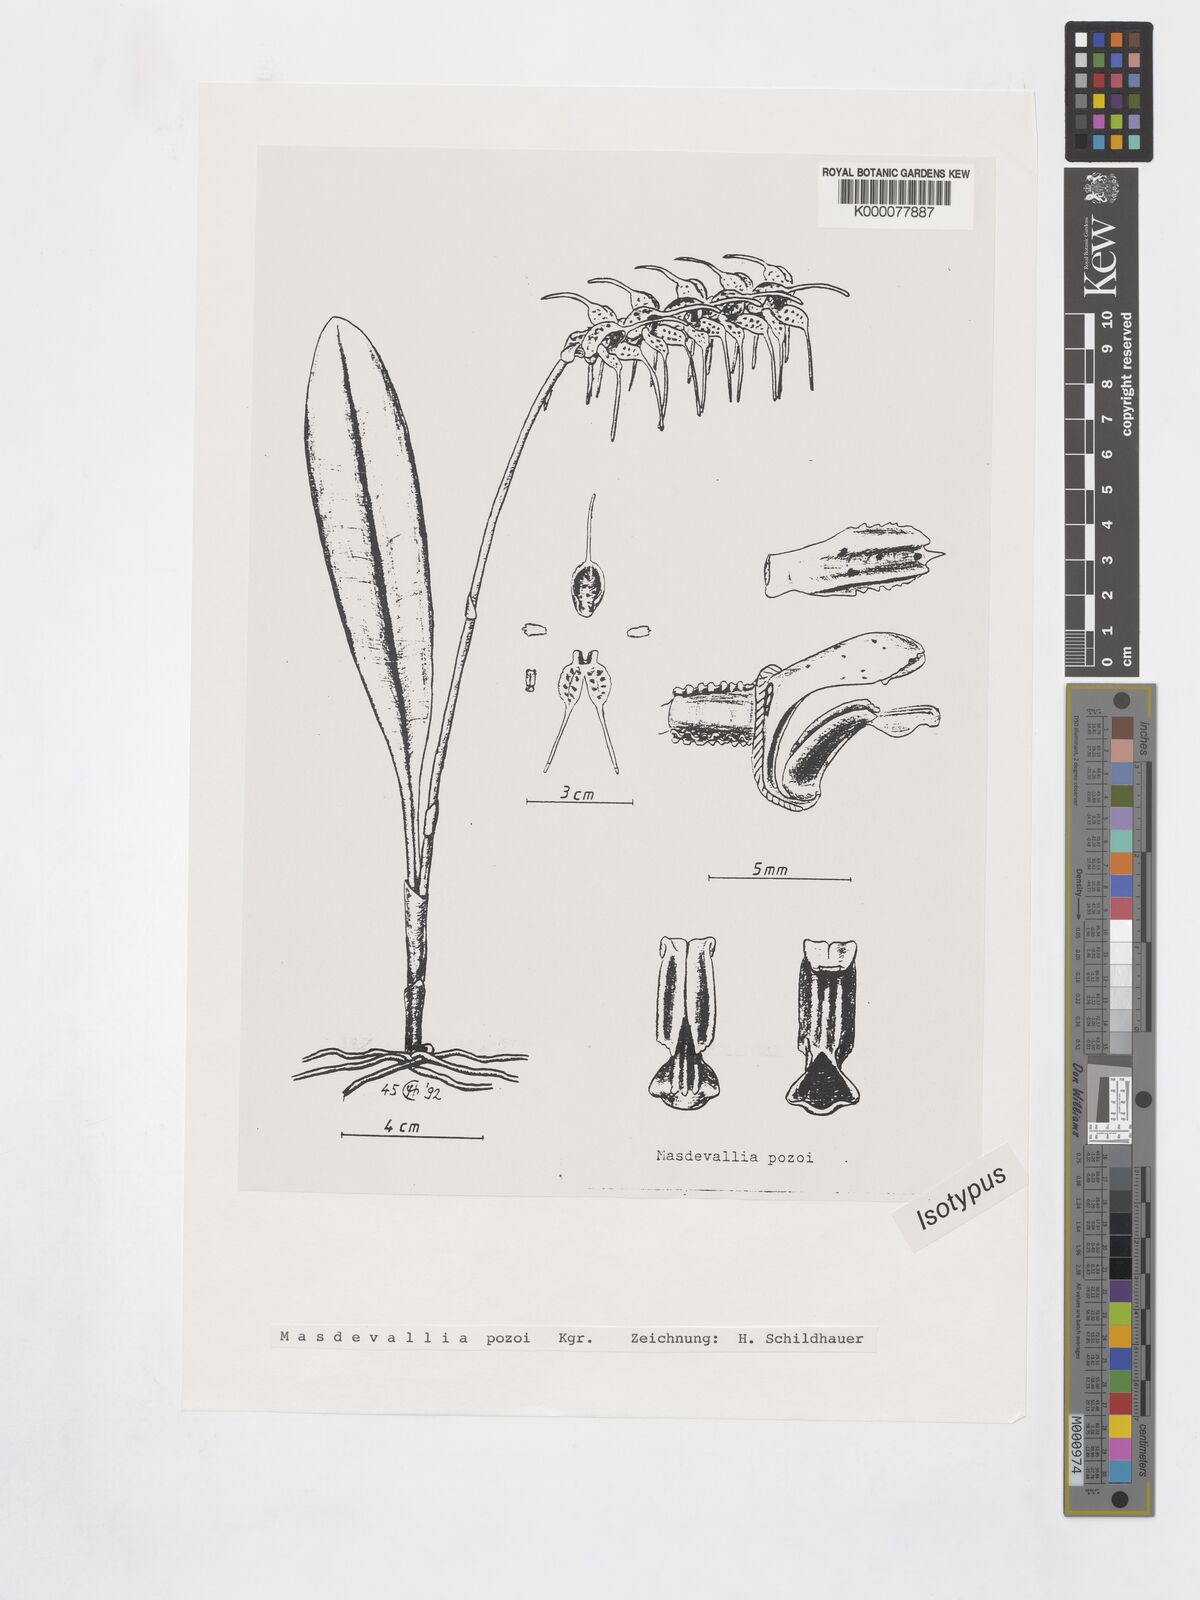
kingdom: Plantae
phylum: Tracheophyta
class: Liliopsida
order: Asparagales
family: Orchidaceae
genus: Masdevallia
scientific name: Masdevallia
